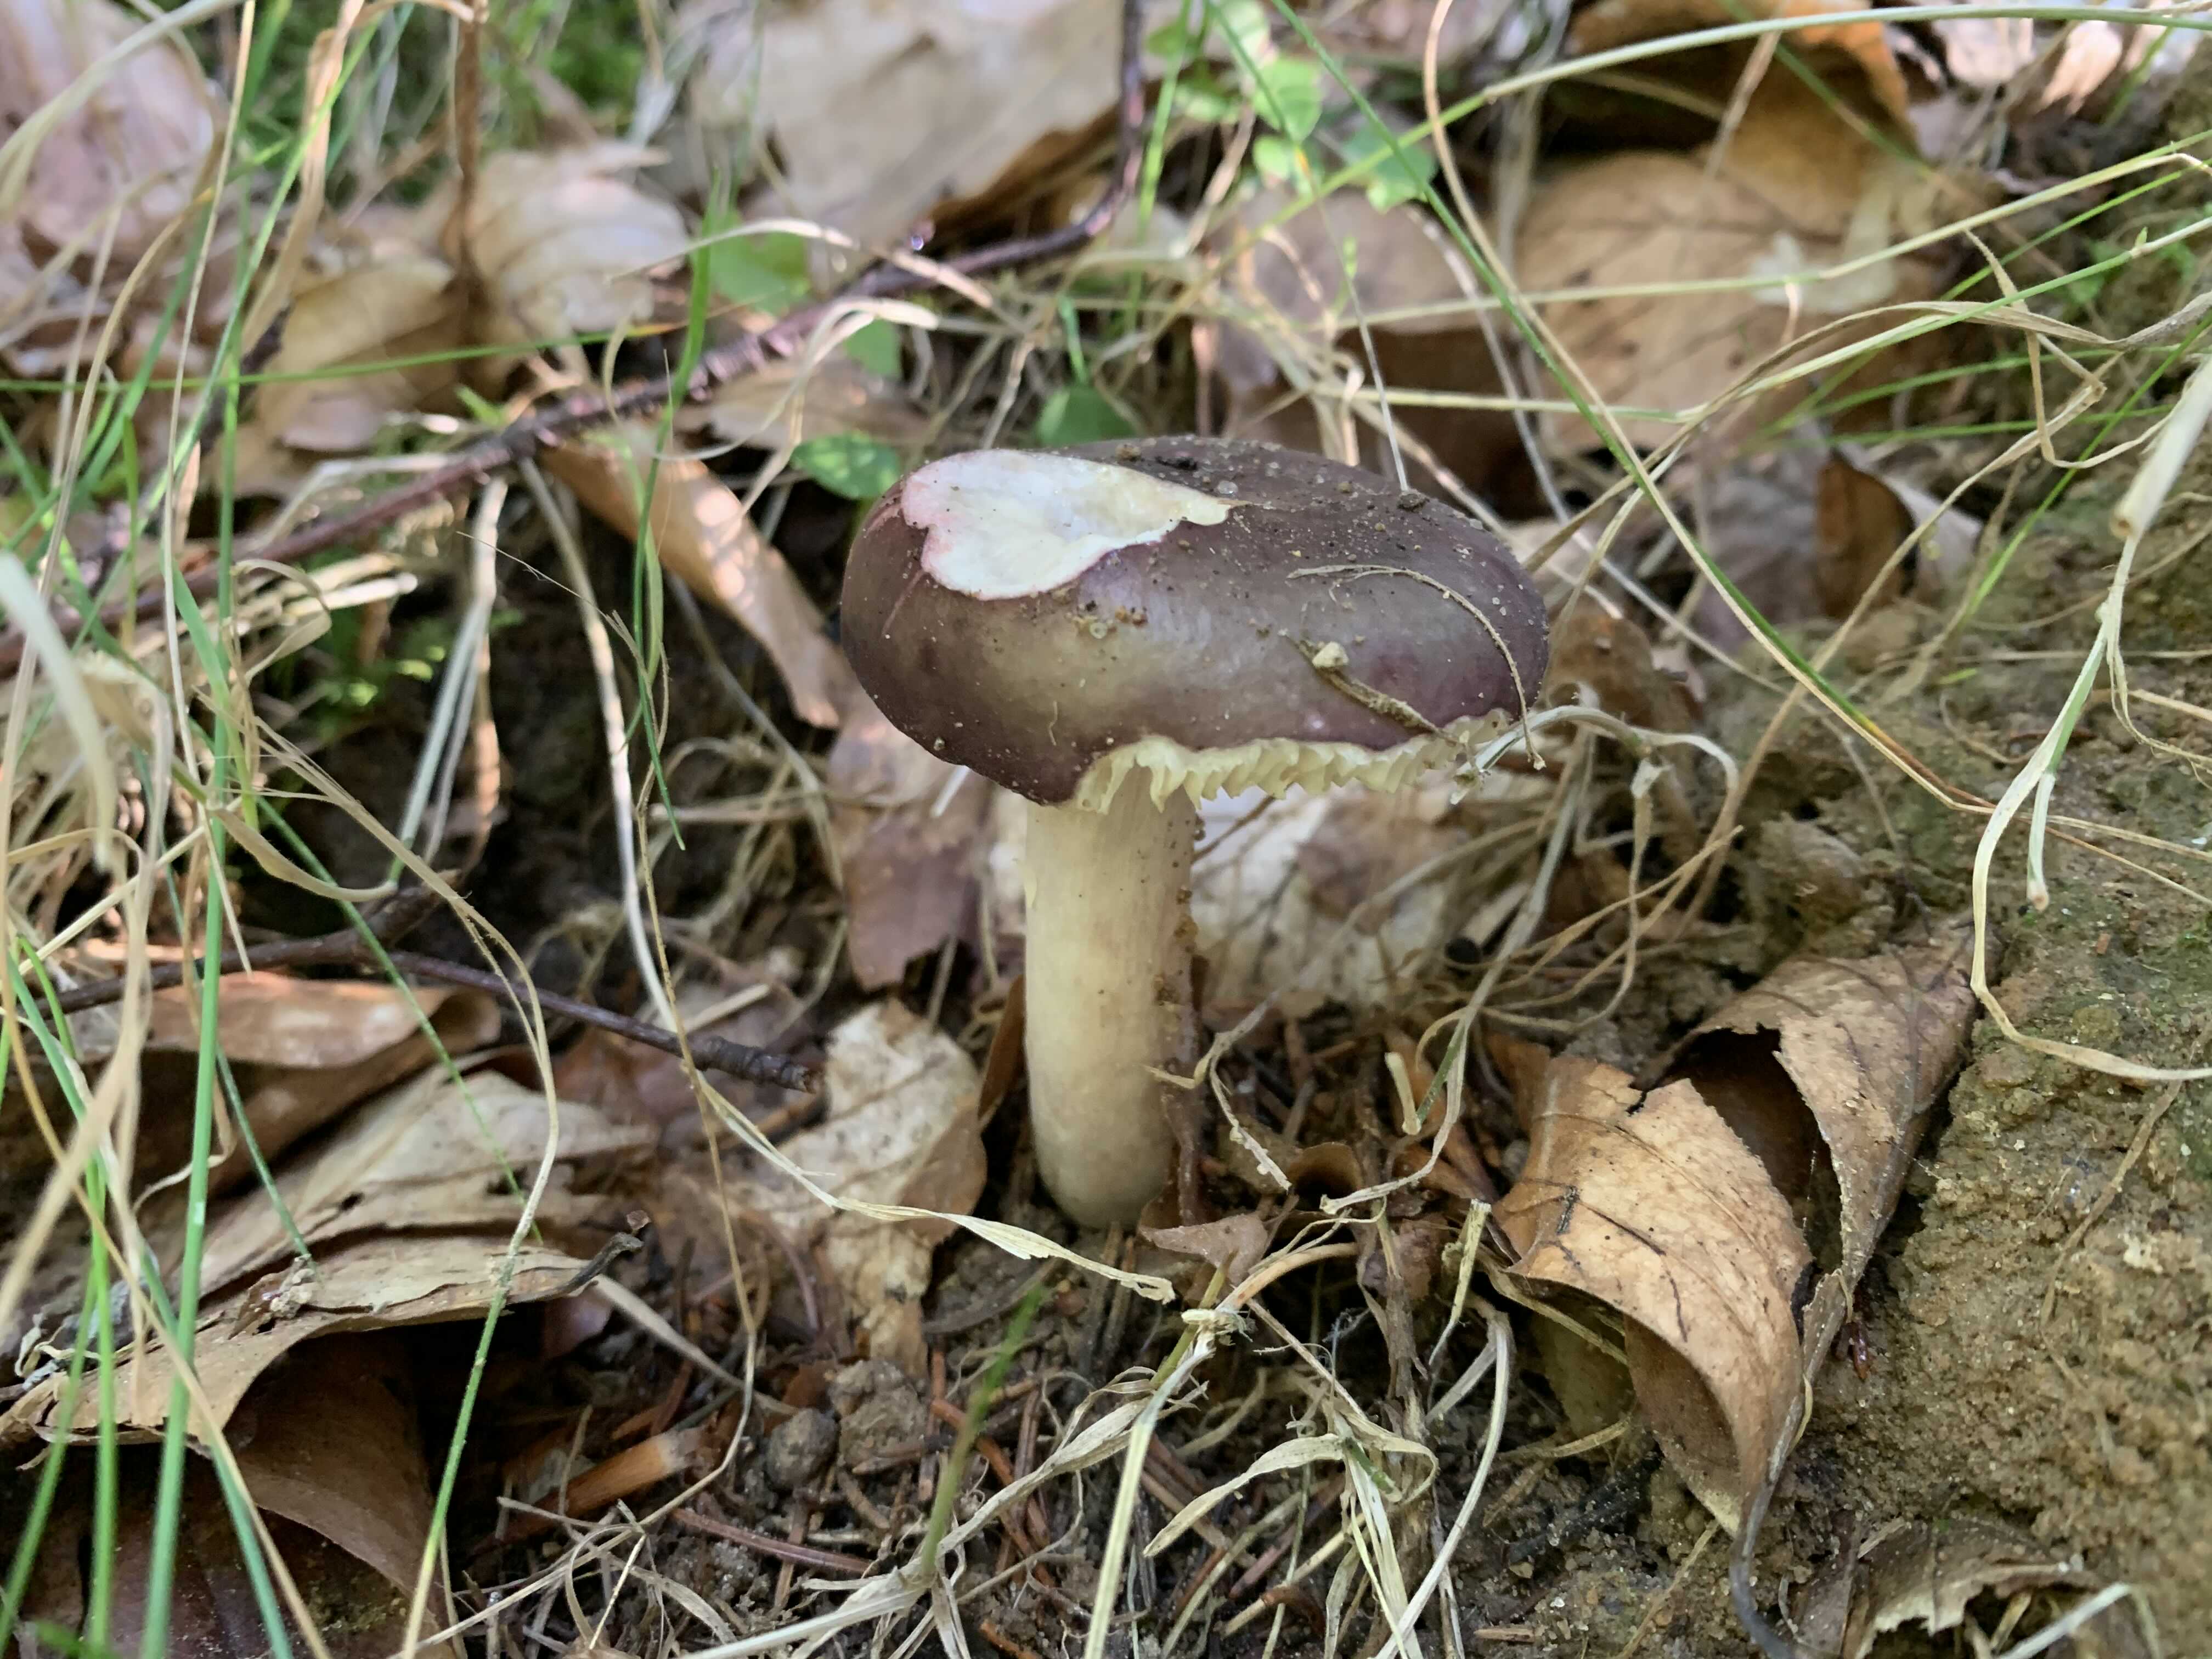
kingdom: Fungi
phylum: Basidiomycota
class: Agaricomycetes
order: Russulales
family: Russulaceae
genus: Russula
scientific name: Russula queletii
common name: Quélets skørhat
